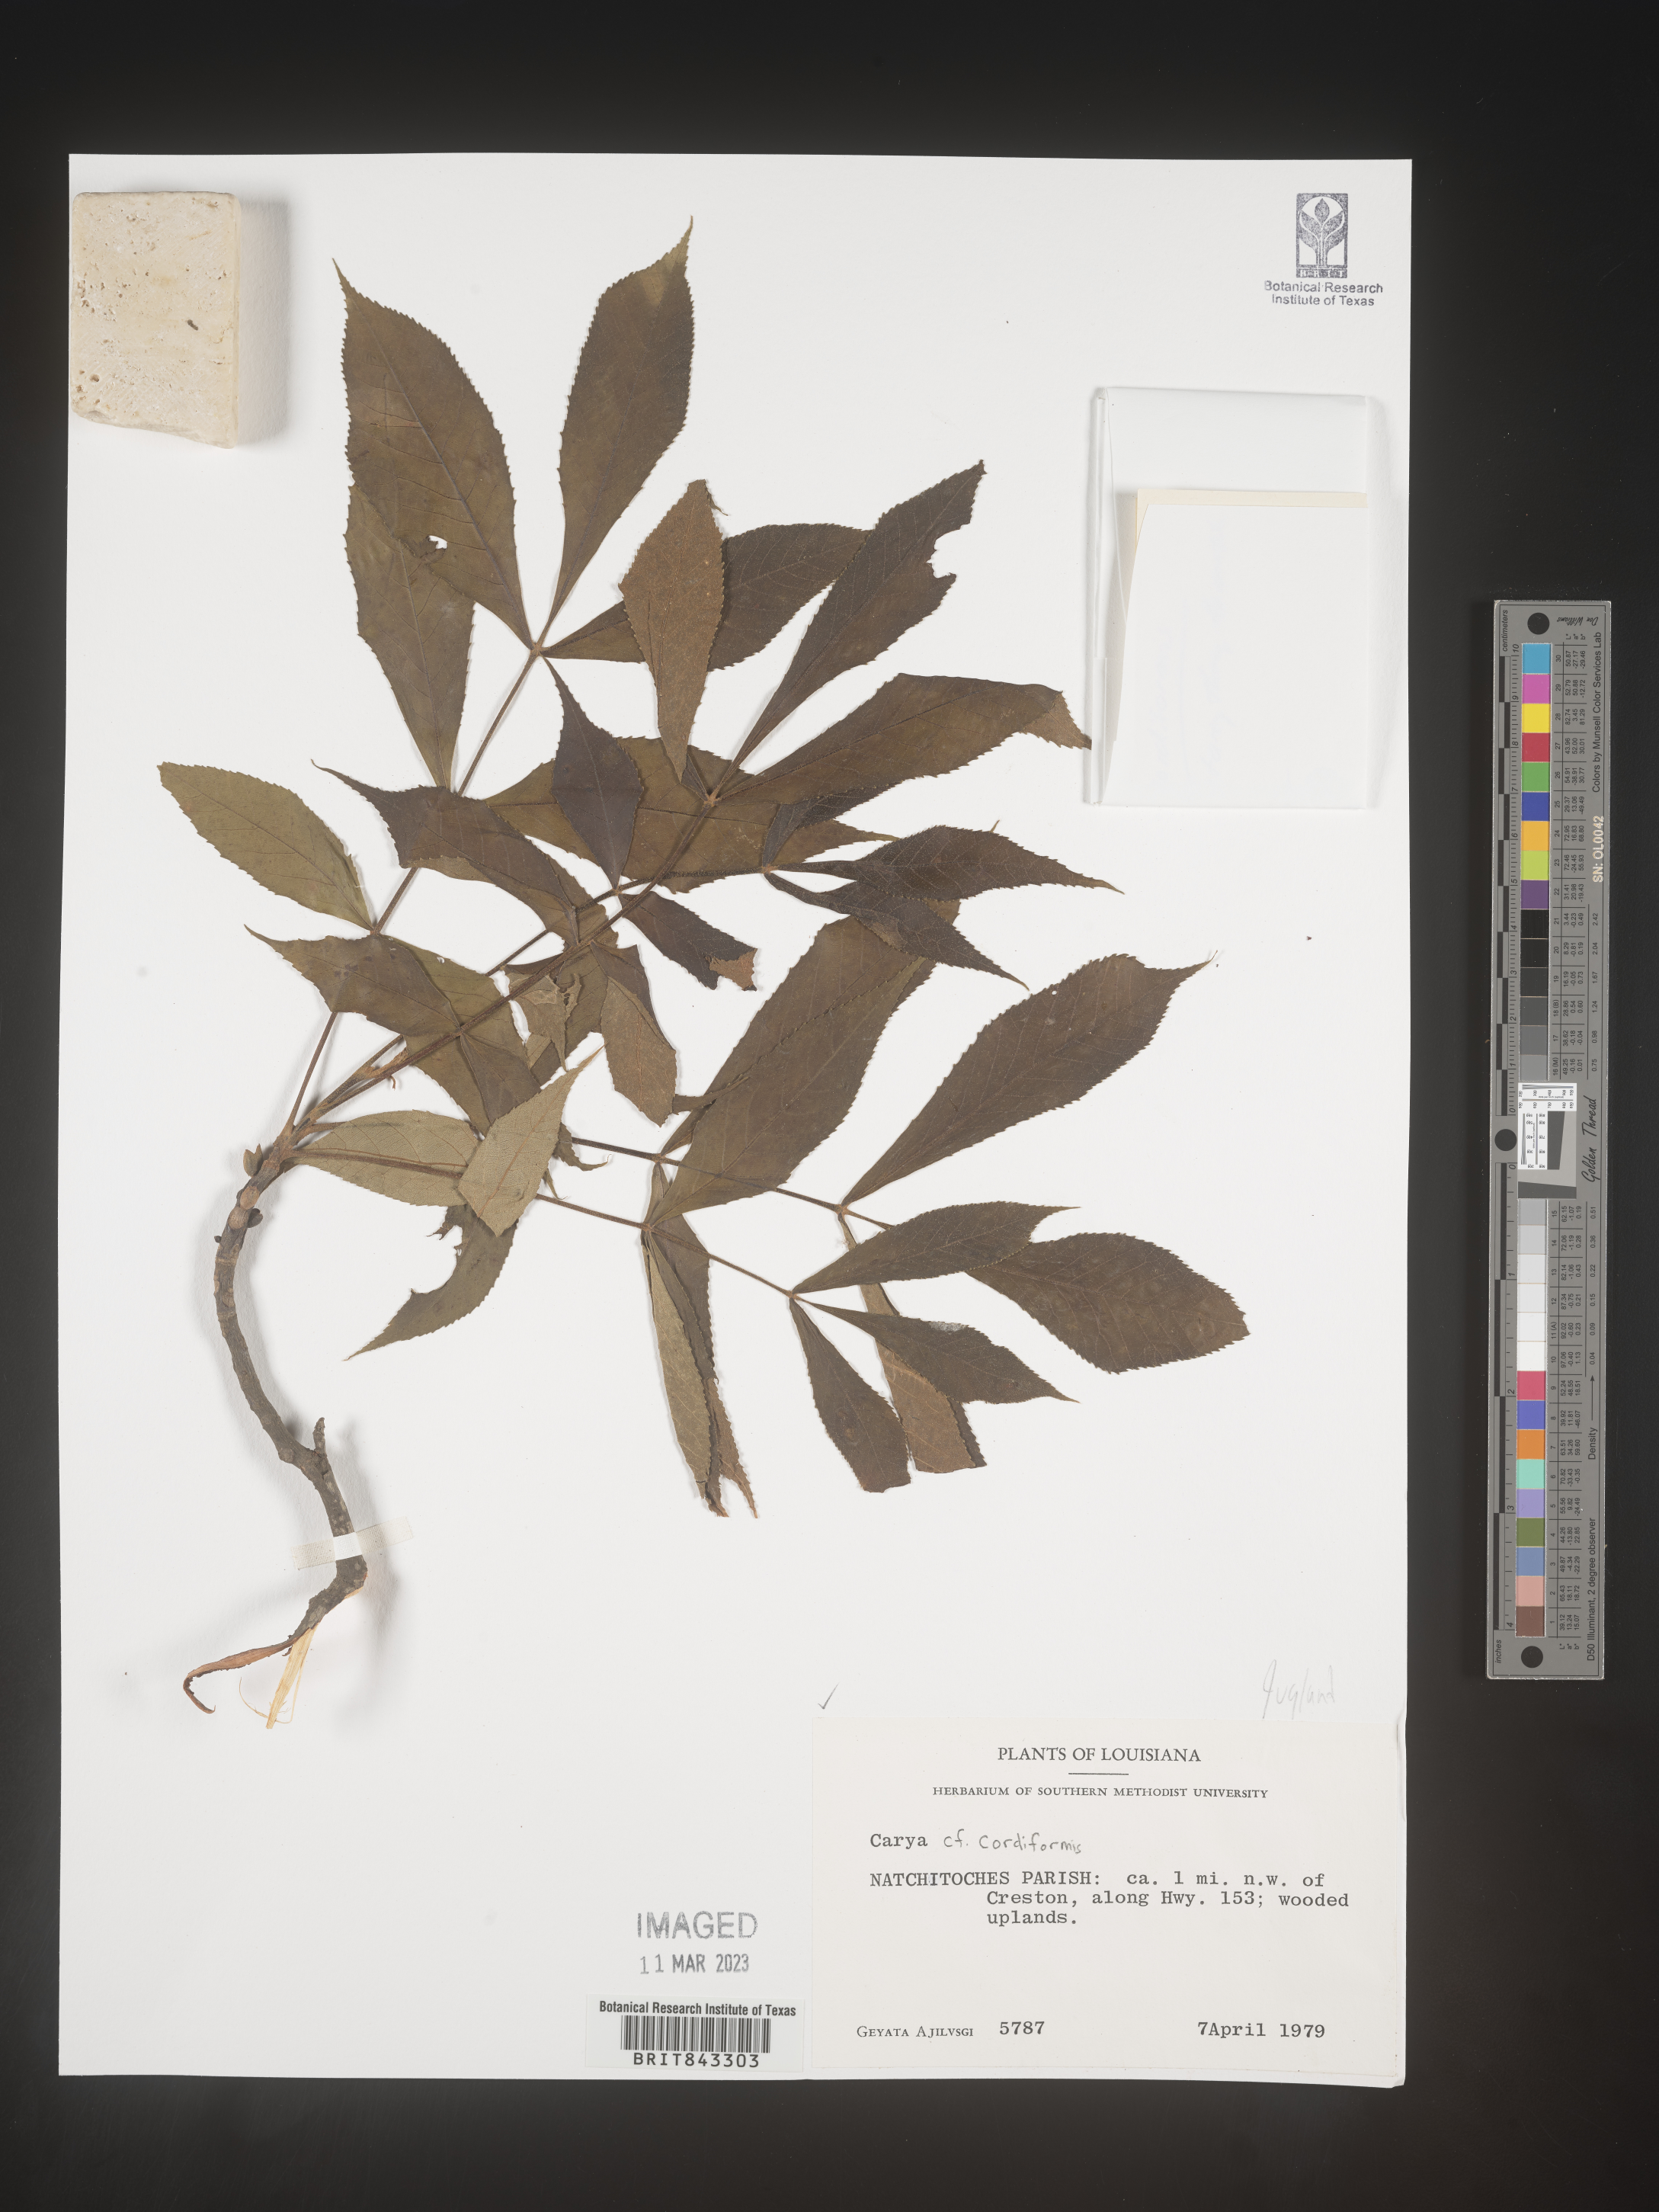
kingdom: Plantae
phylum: Tracheophyta
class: Magnoliopsida
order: Fagales
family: Juglandaceae
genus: Carya
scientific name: Carya cordiformis
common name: Bitternut hickory
